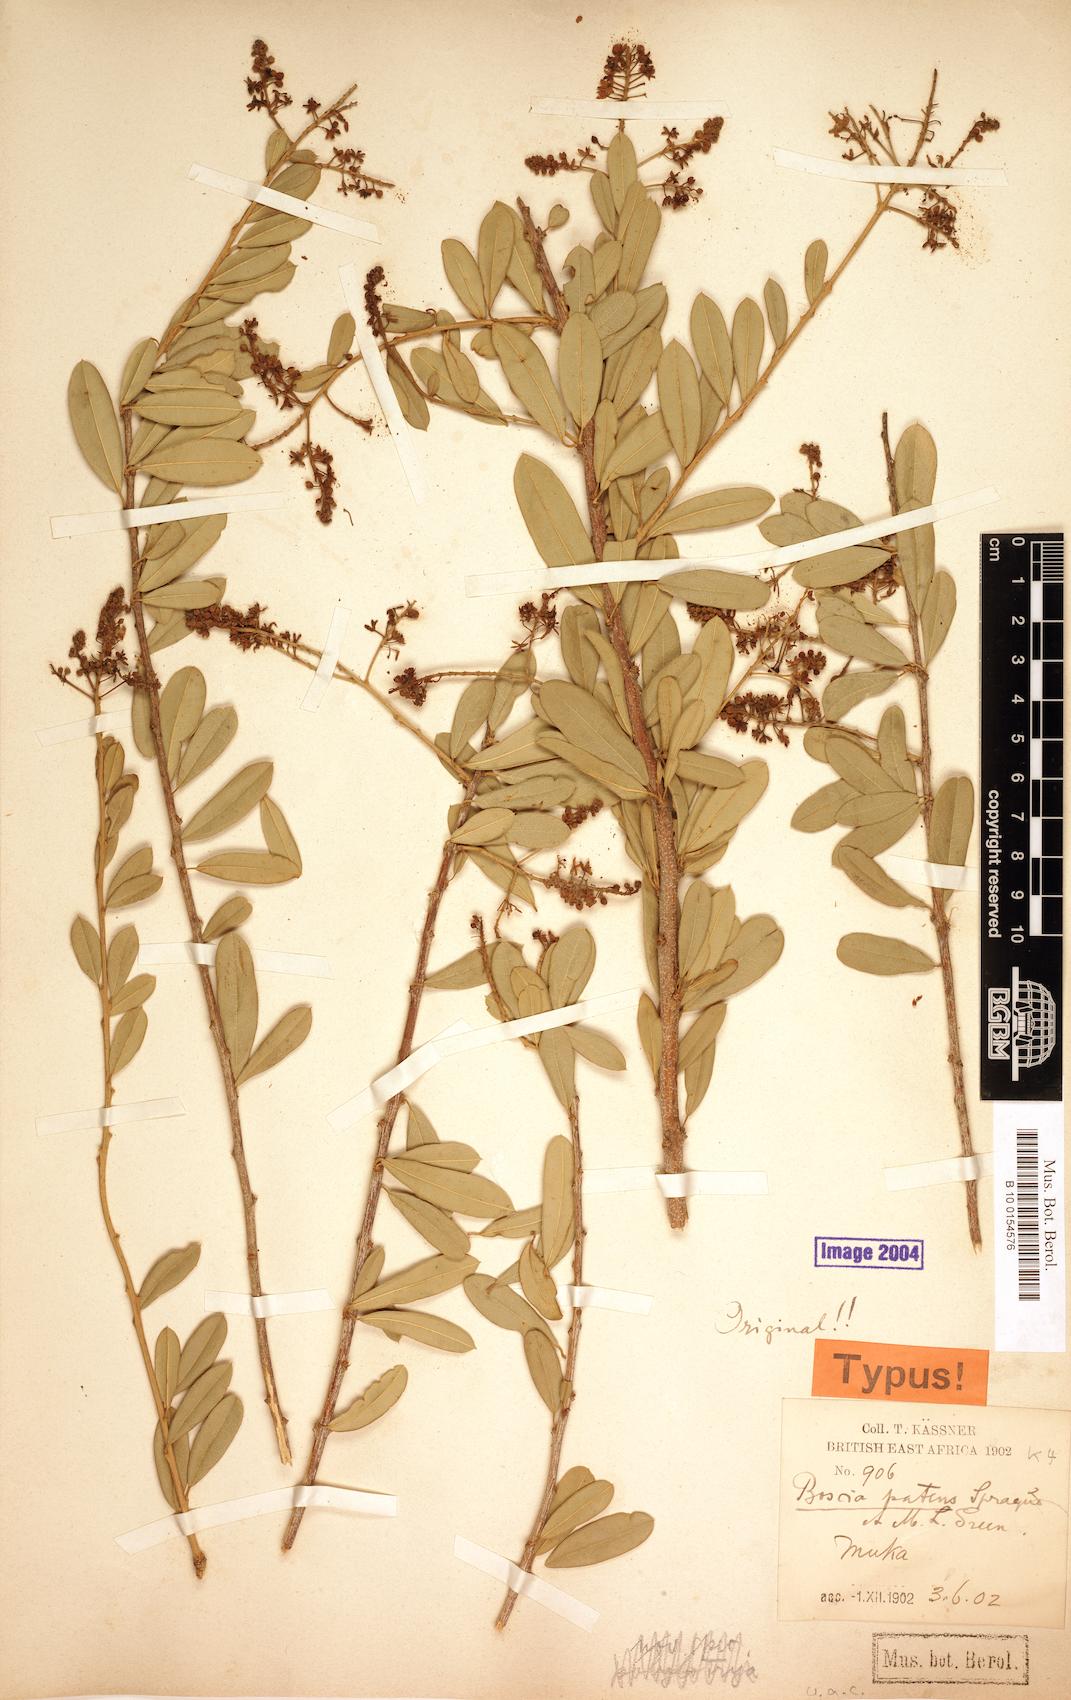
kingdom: Plantae
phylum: Tracheophyta
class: Magnoliopsida
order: Brassicales
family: Capparaceae
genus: Boscia
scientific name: Boscia angustifolia
